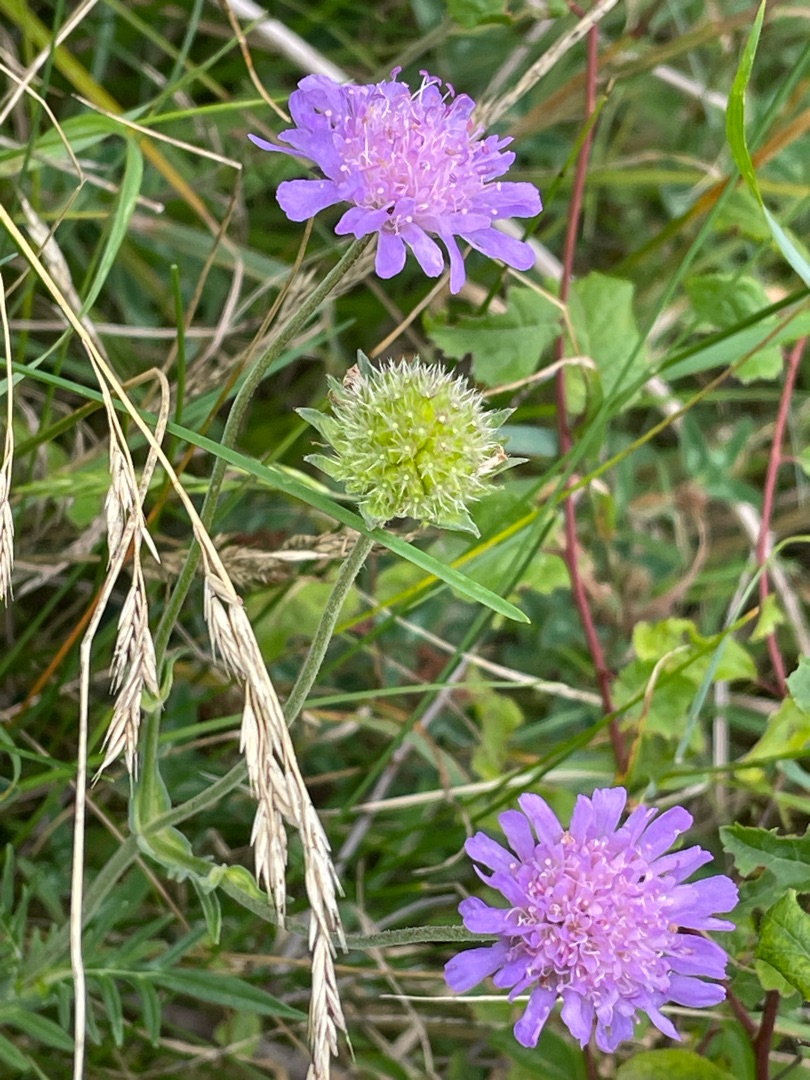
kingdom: Plantae
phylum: Tracheophyta
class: Magnoliopsida
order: Dipsacales
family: Caprifoliaceae
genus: Knautia
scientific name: Knautia arvensis
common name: Blåhat
